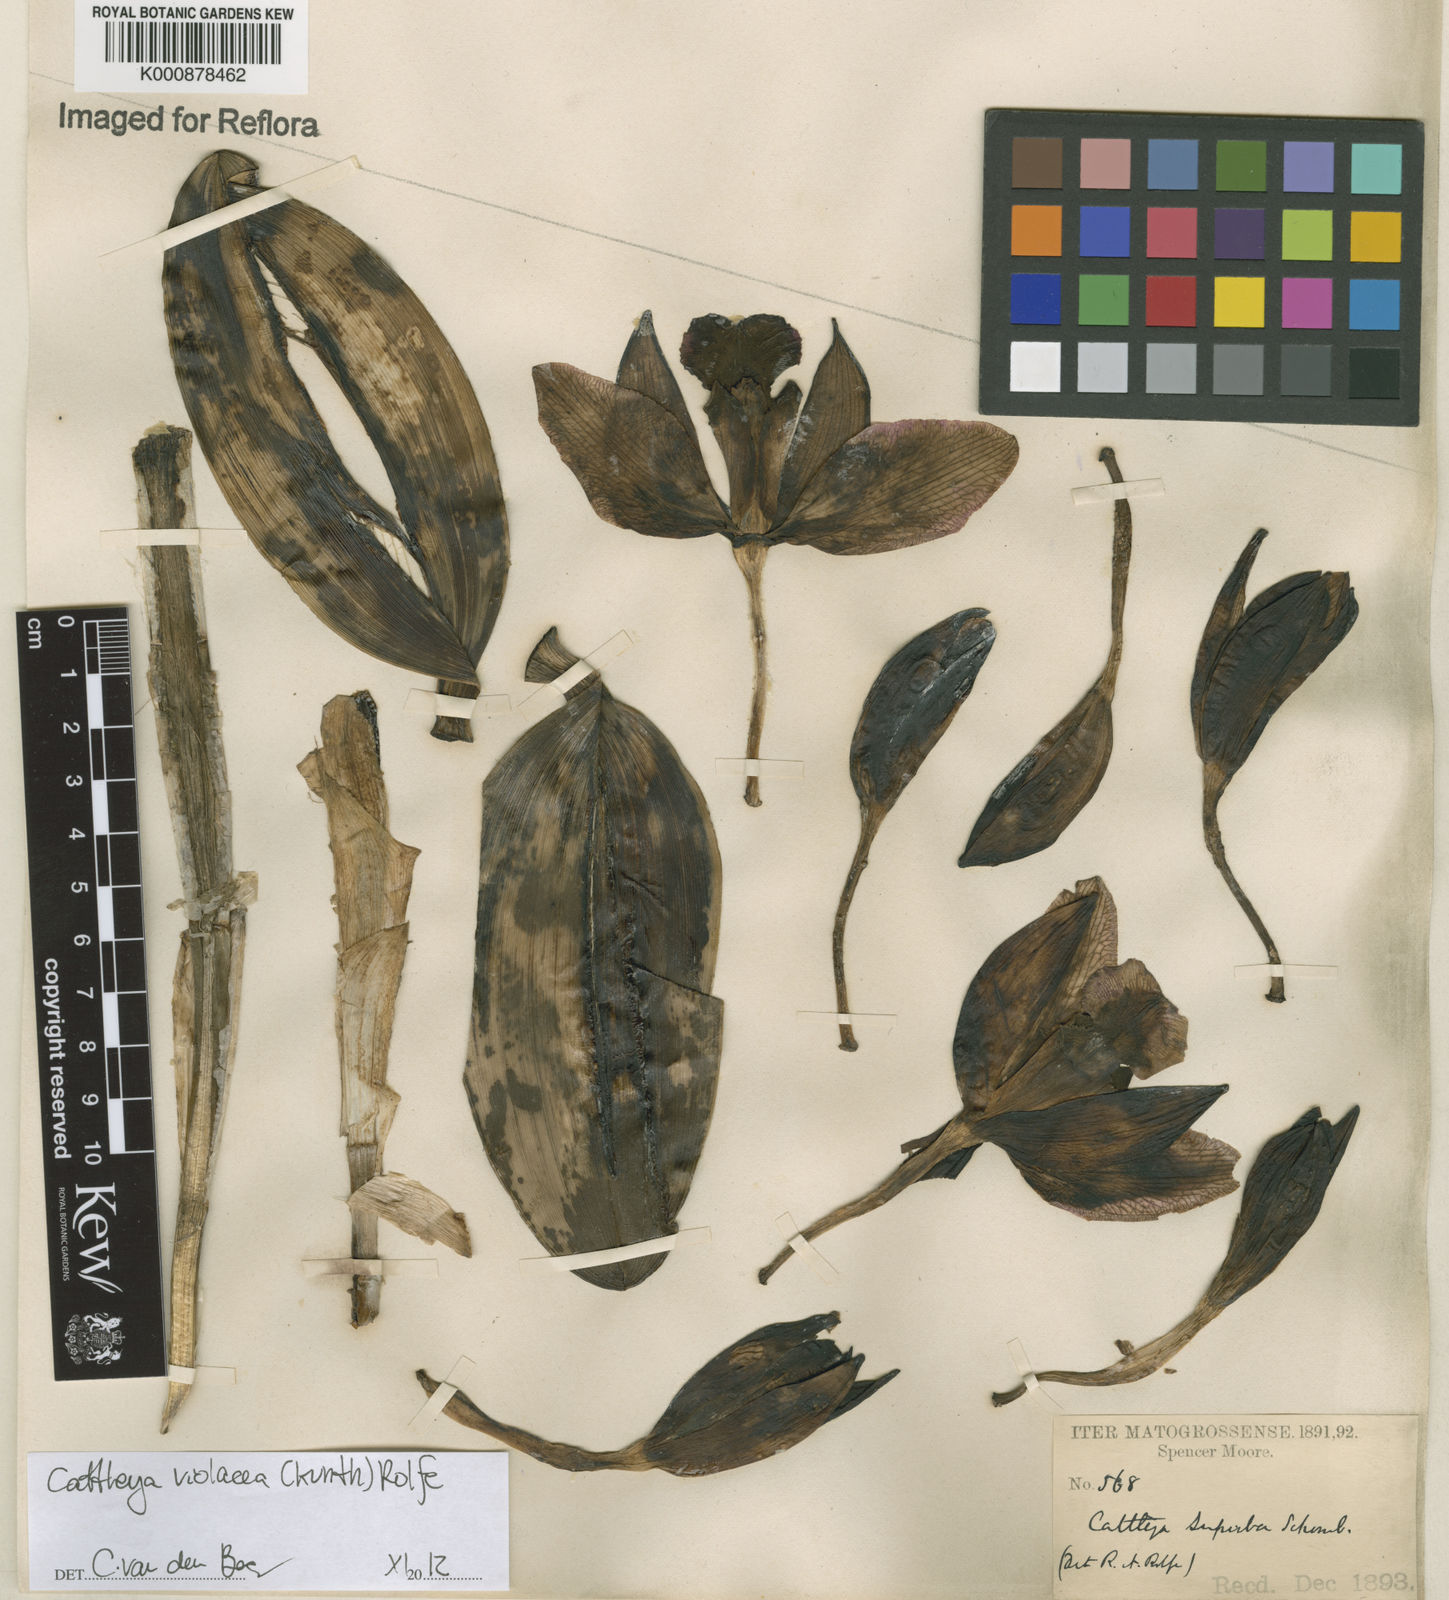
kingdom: Plantae
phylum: Tracheophyta
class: Liliopsida
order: Asparagales
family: Orchidaceae
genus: Cattleya
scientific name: Cattleya
